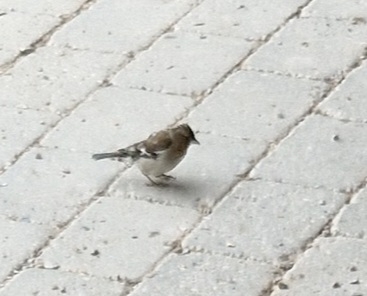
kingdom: Animalia
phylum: Chordata
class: Aves
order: Passeriformes
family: Fringillidae
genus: Fringilla
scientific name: Fringilla coelebs
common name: Bogfinke
